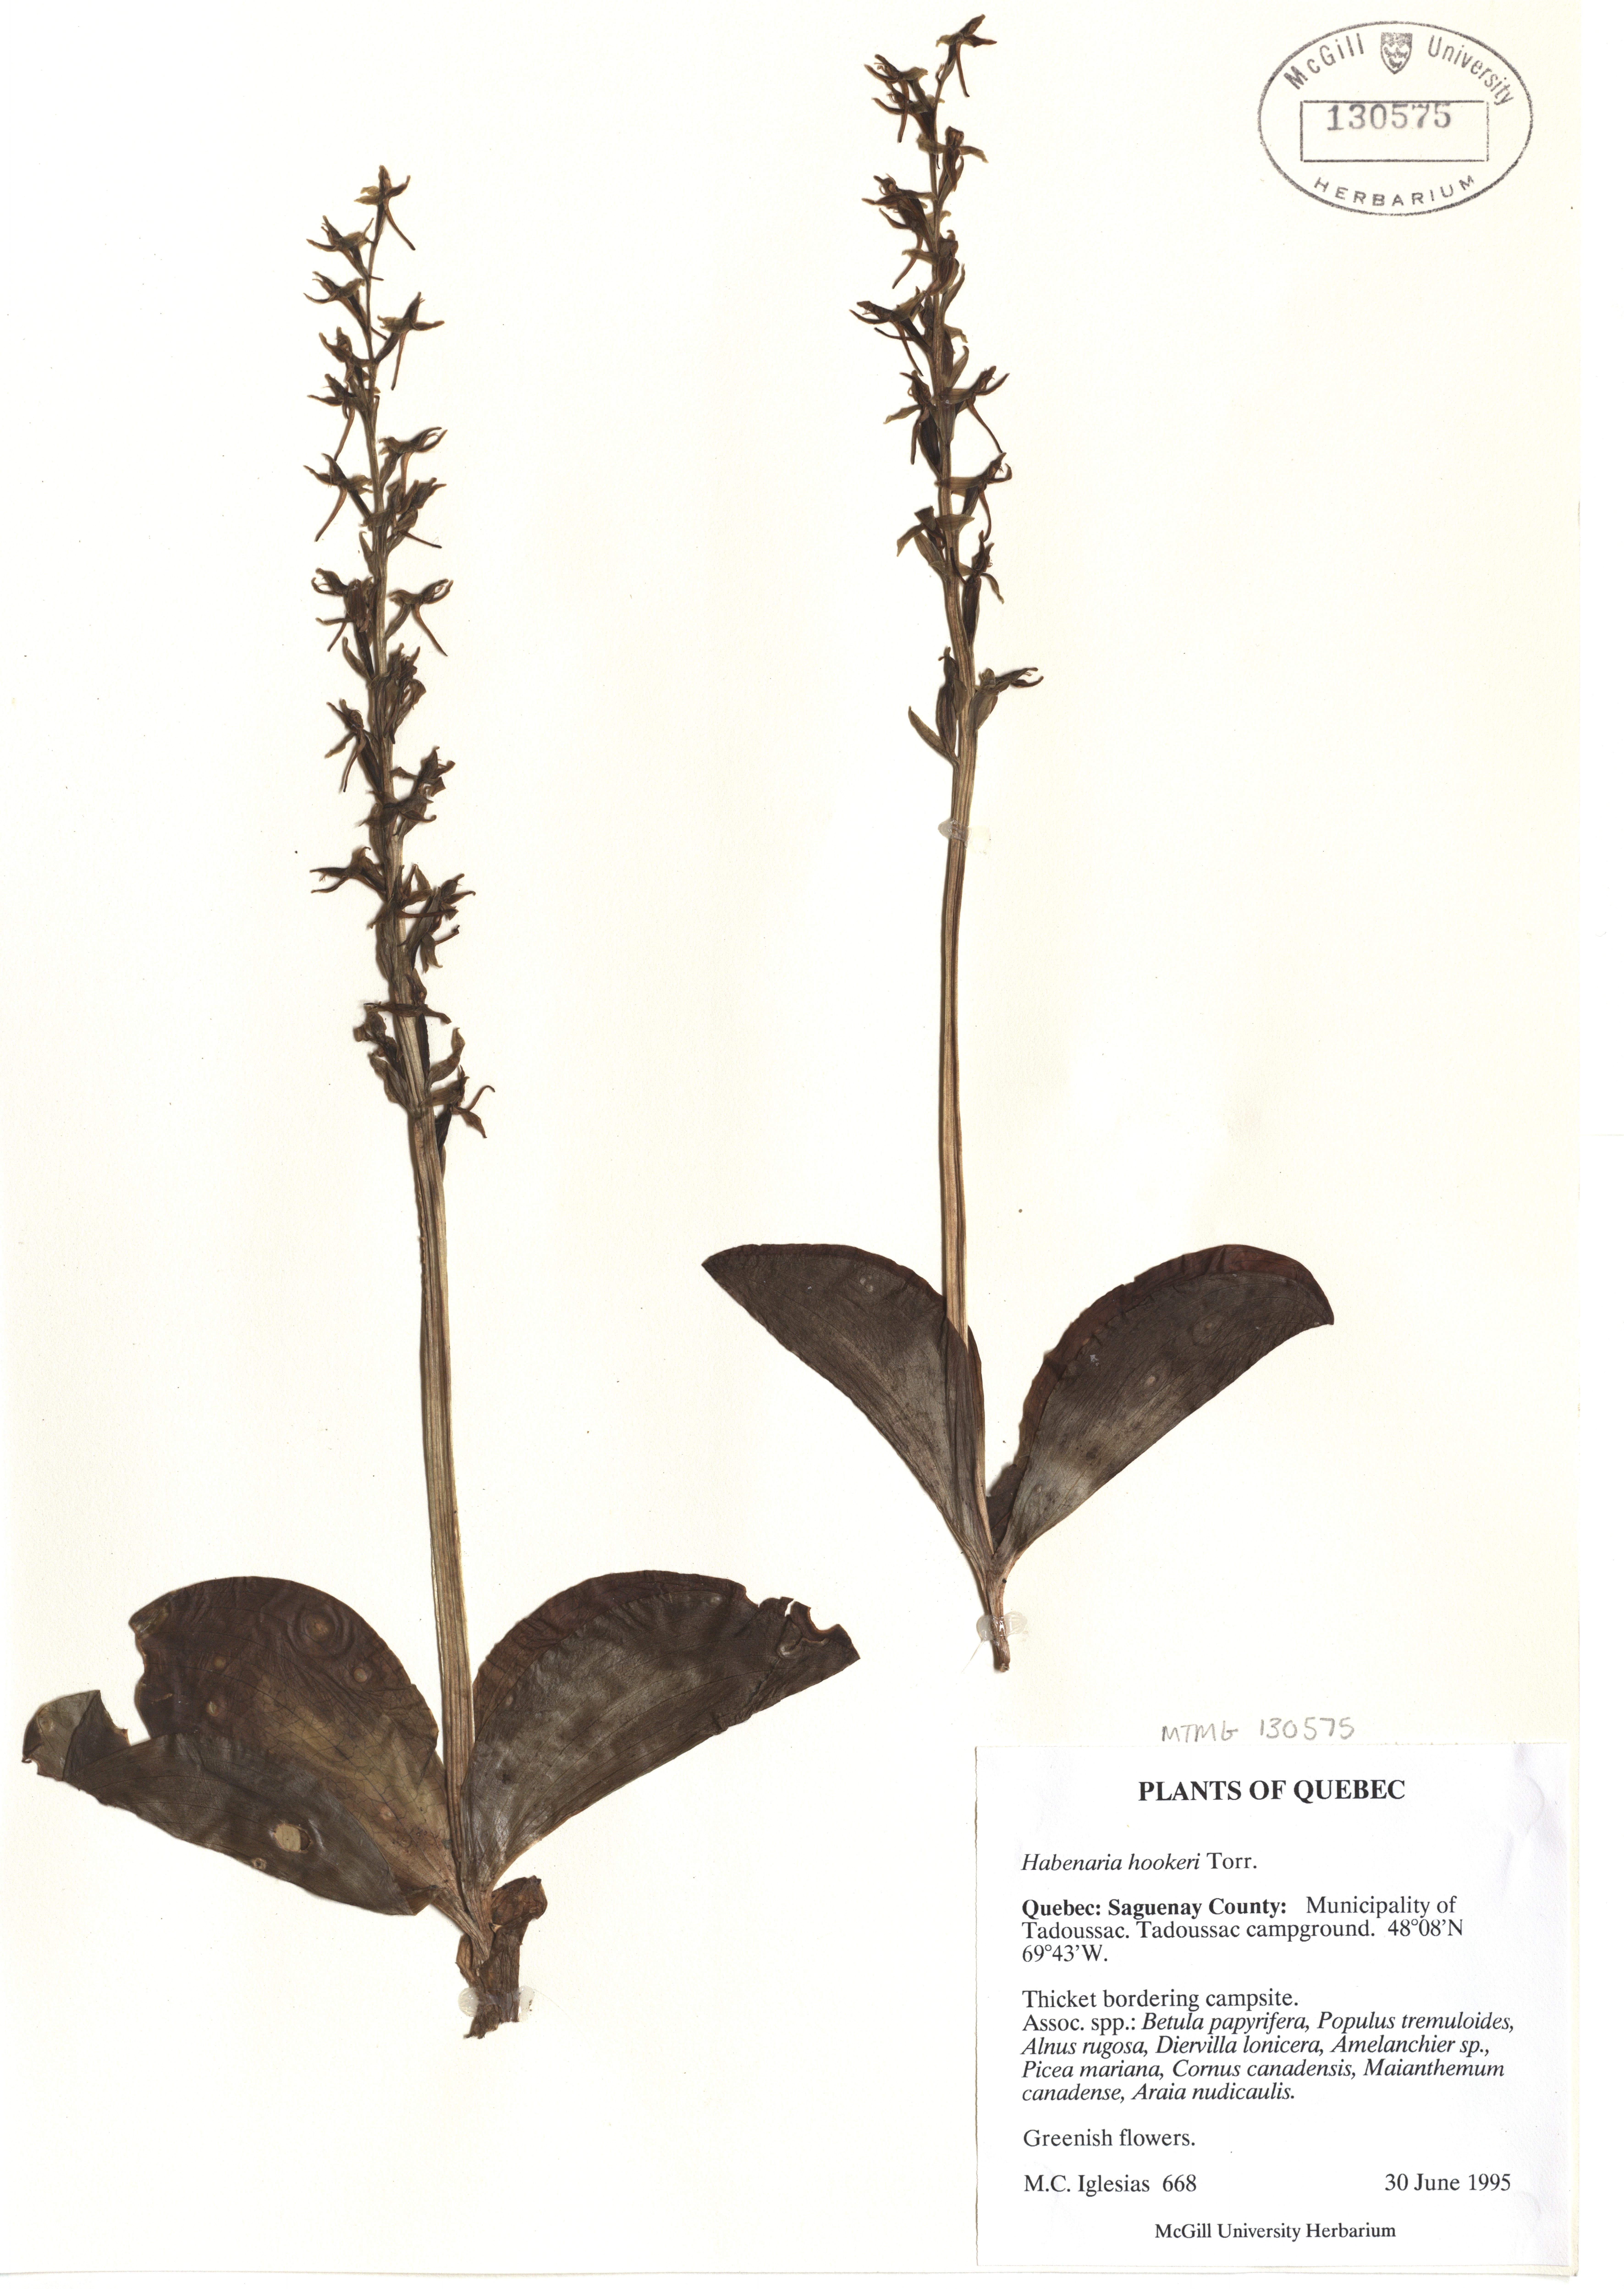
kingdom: Plantae
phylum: Tracheophyta
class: Liliopsida
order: Asparagales
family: Orchidaceae
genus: Platanthera
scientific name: Platanthera hookeri
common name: Hooker's orchid
